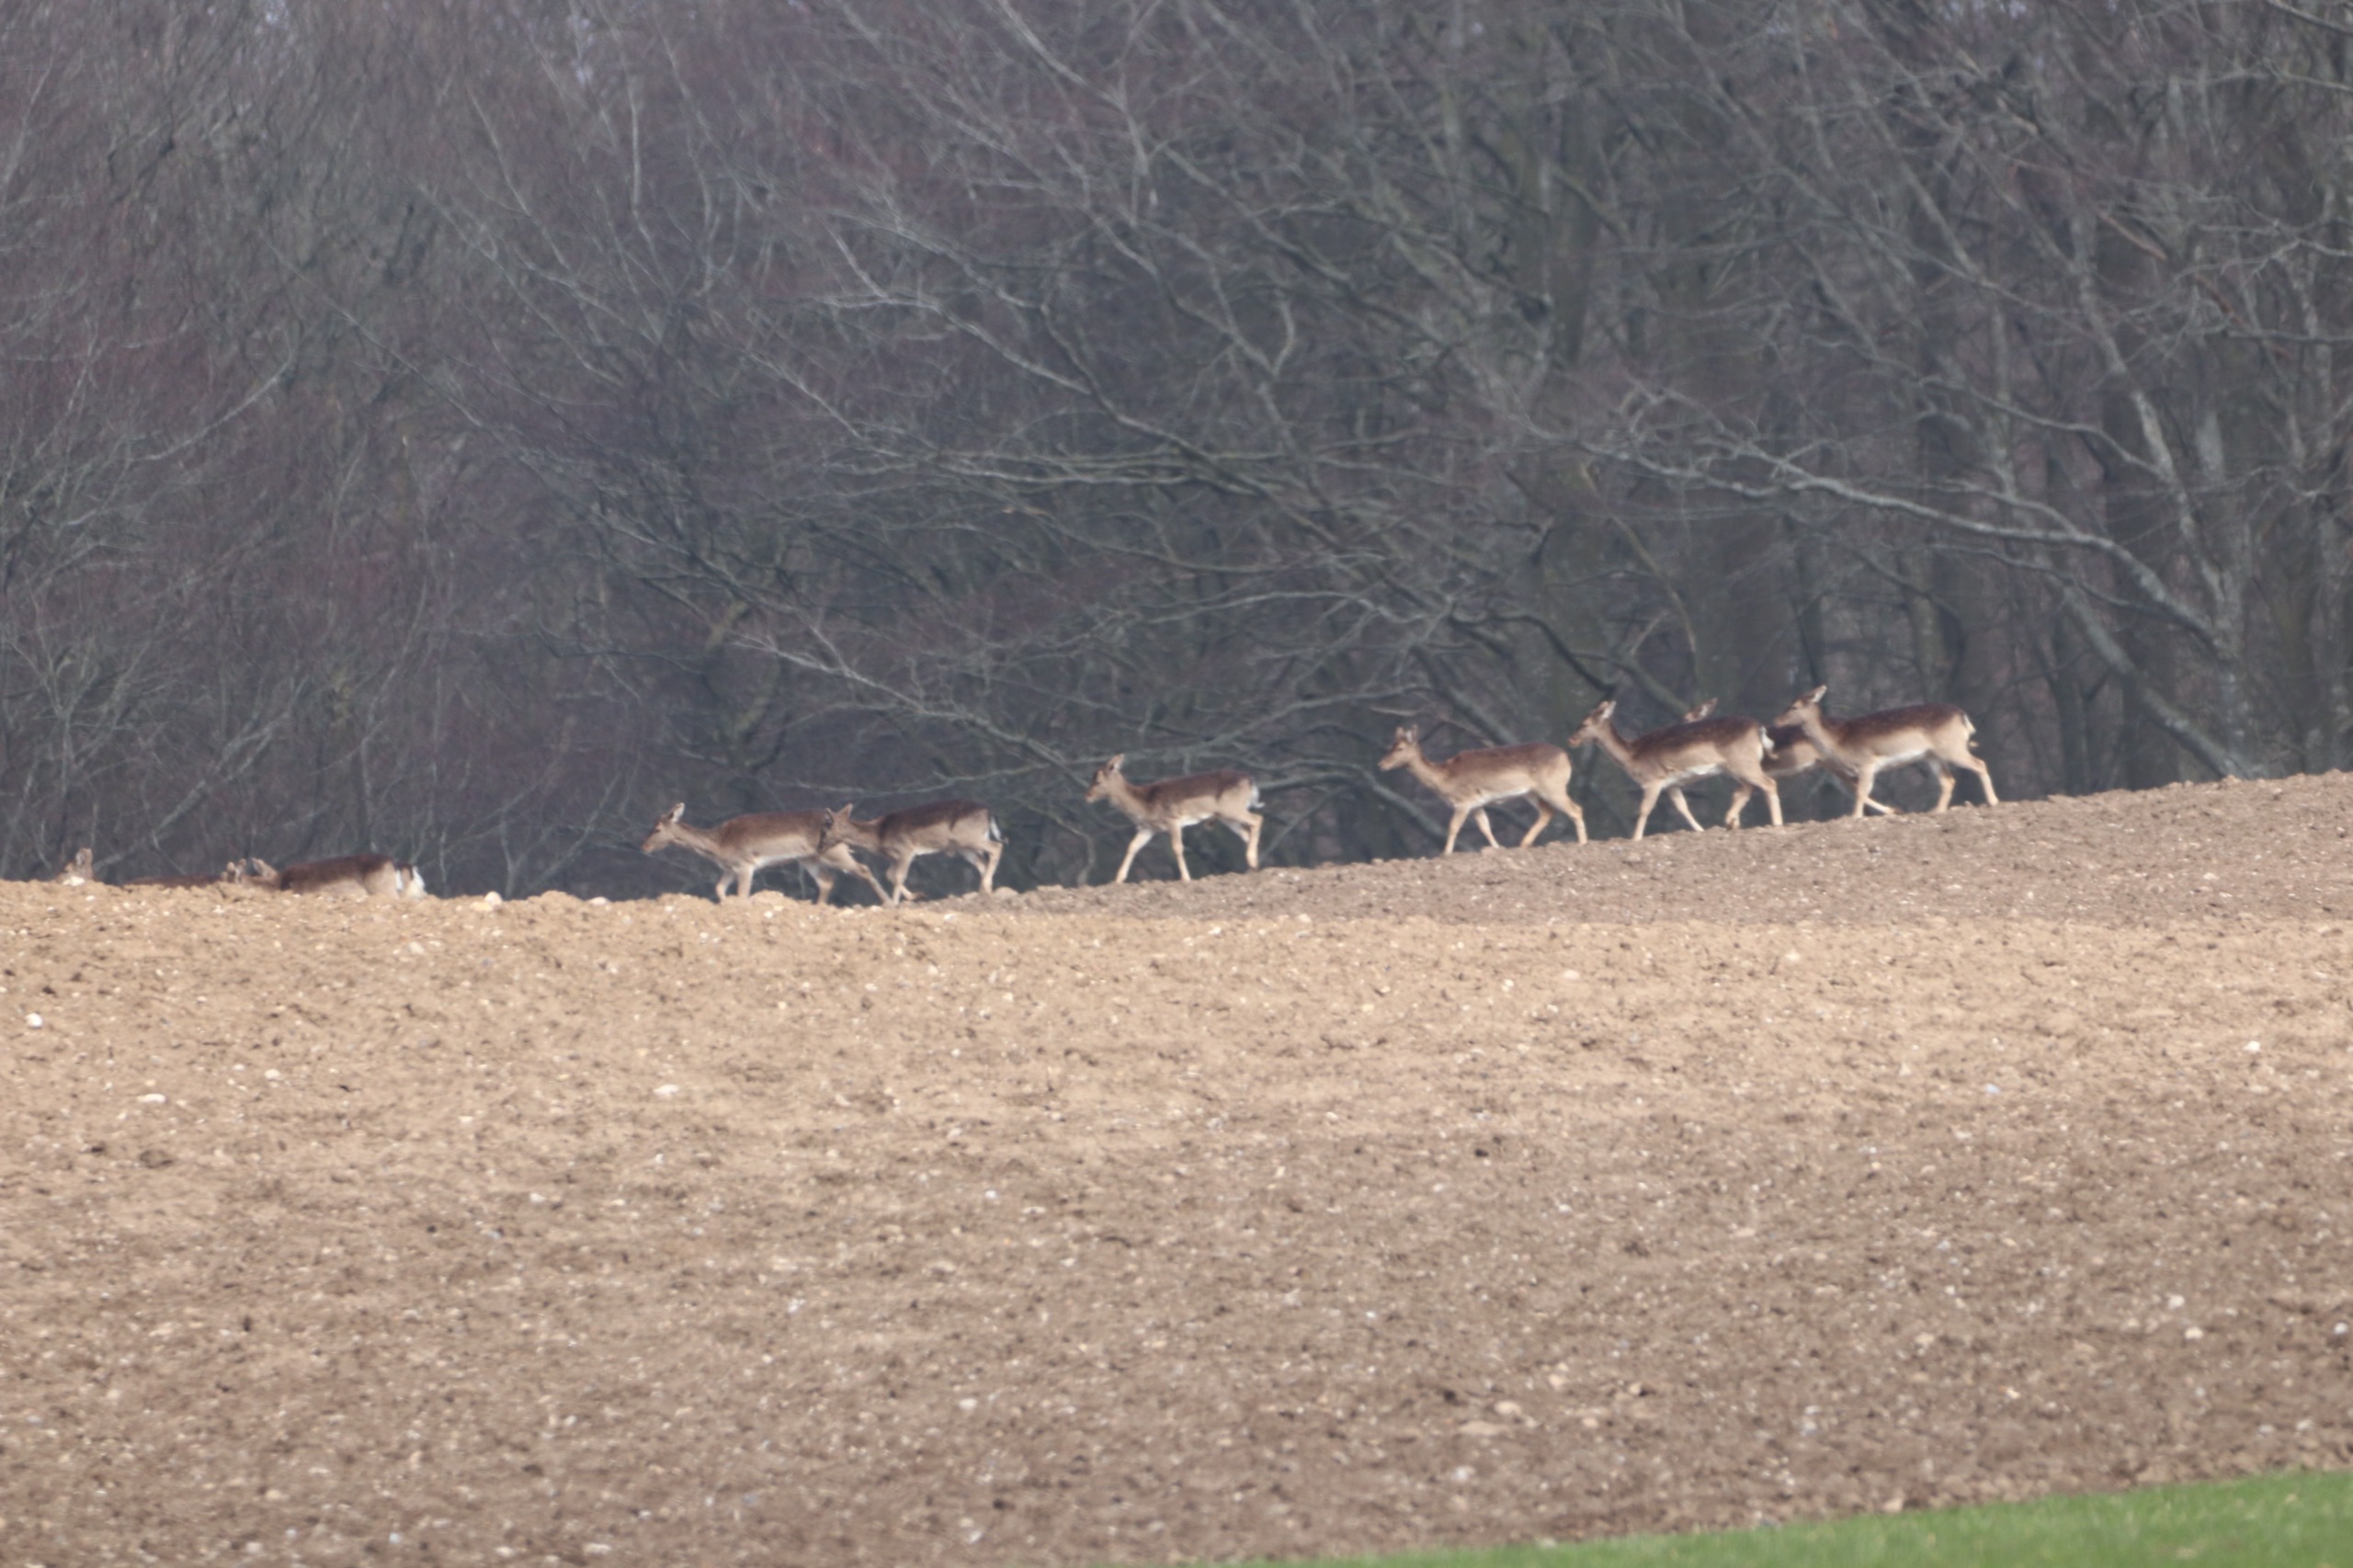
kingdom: Animalia
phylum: Chordata
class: Mammalia
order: Artiodactyla
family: Cervidae
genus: Dama
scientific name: Dama dama
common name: Dådyr
